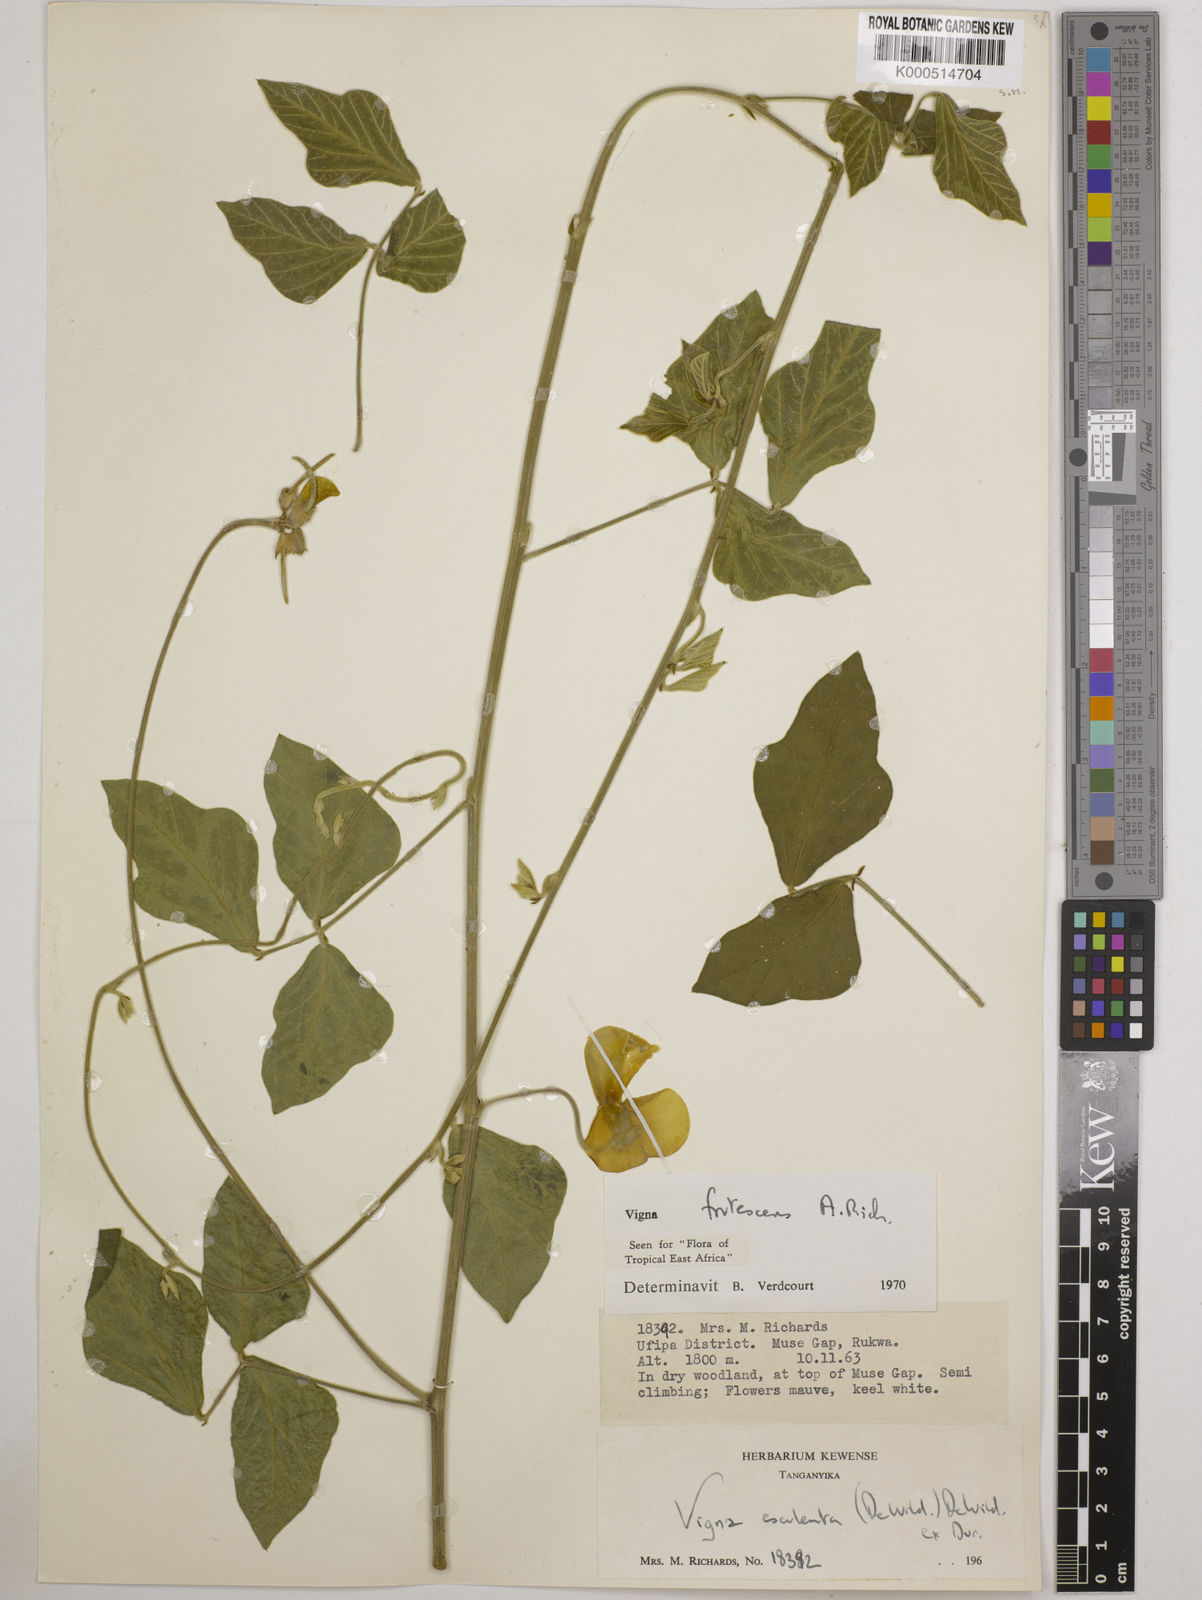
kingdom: Plantae
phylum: Tracheophyta
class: Magnoliopsida
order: Fabales
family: Fabaceae
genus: Vigna
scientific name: Vigna frutescens
